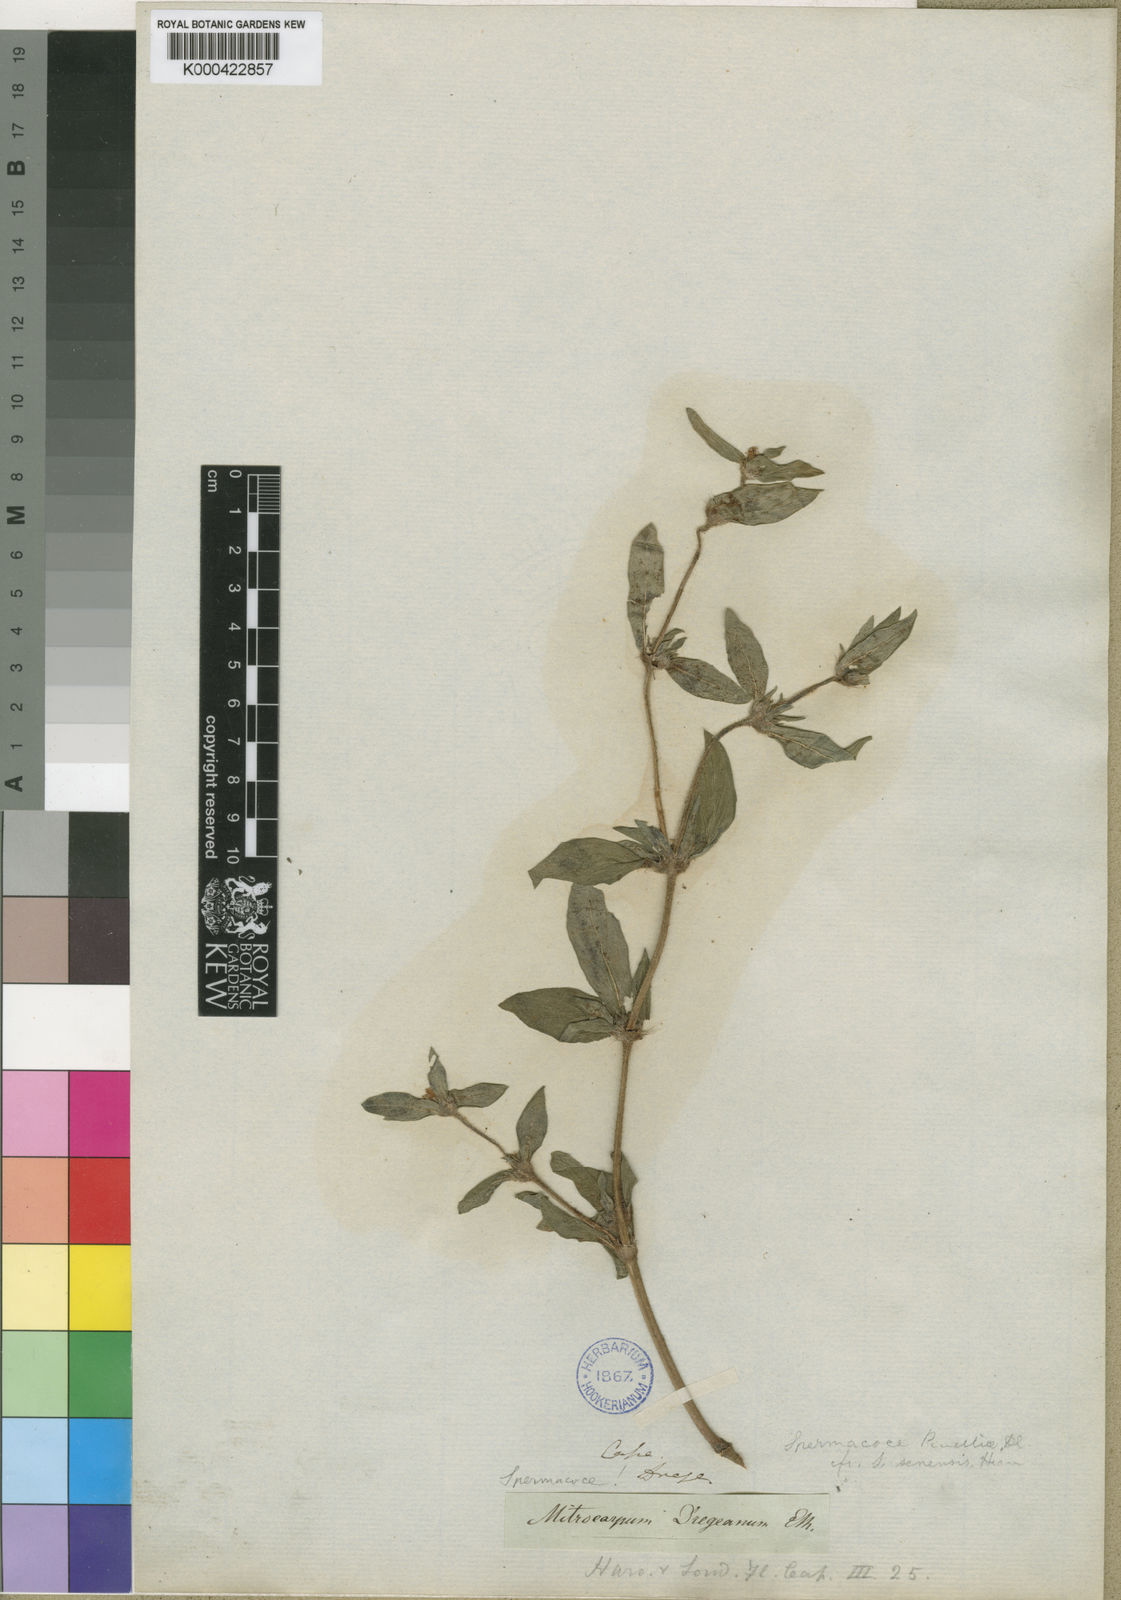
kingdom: Plantae
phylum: Tracheophyta
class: Magnoliopsida
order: Gentianales
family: Rubiaceae
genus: Spermacoce
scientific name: Spermacoce senensis
